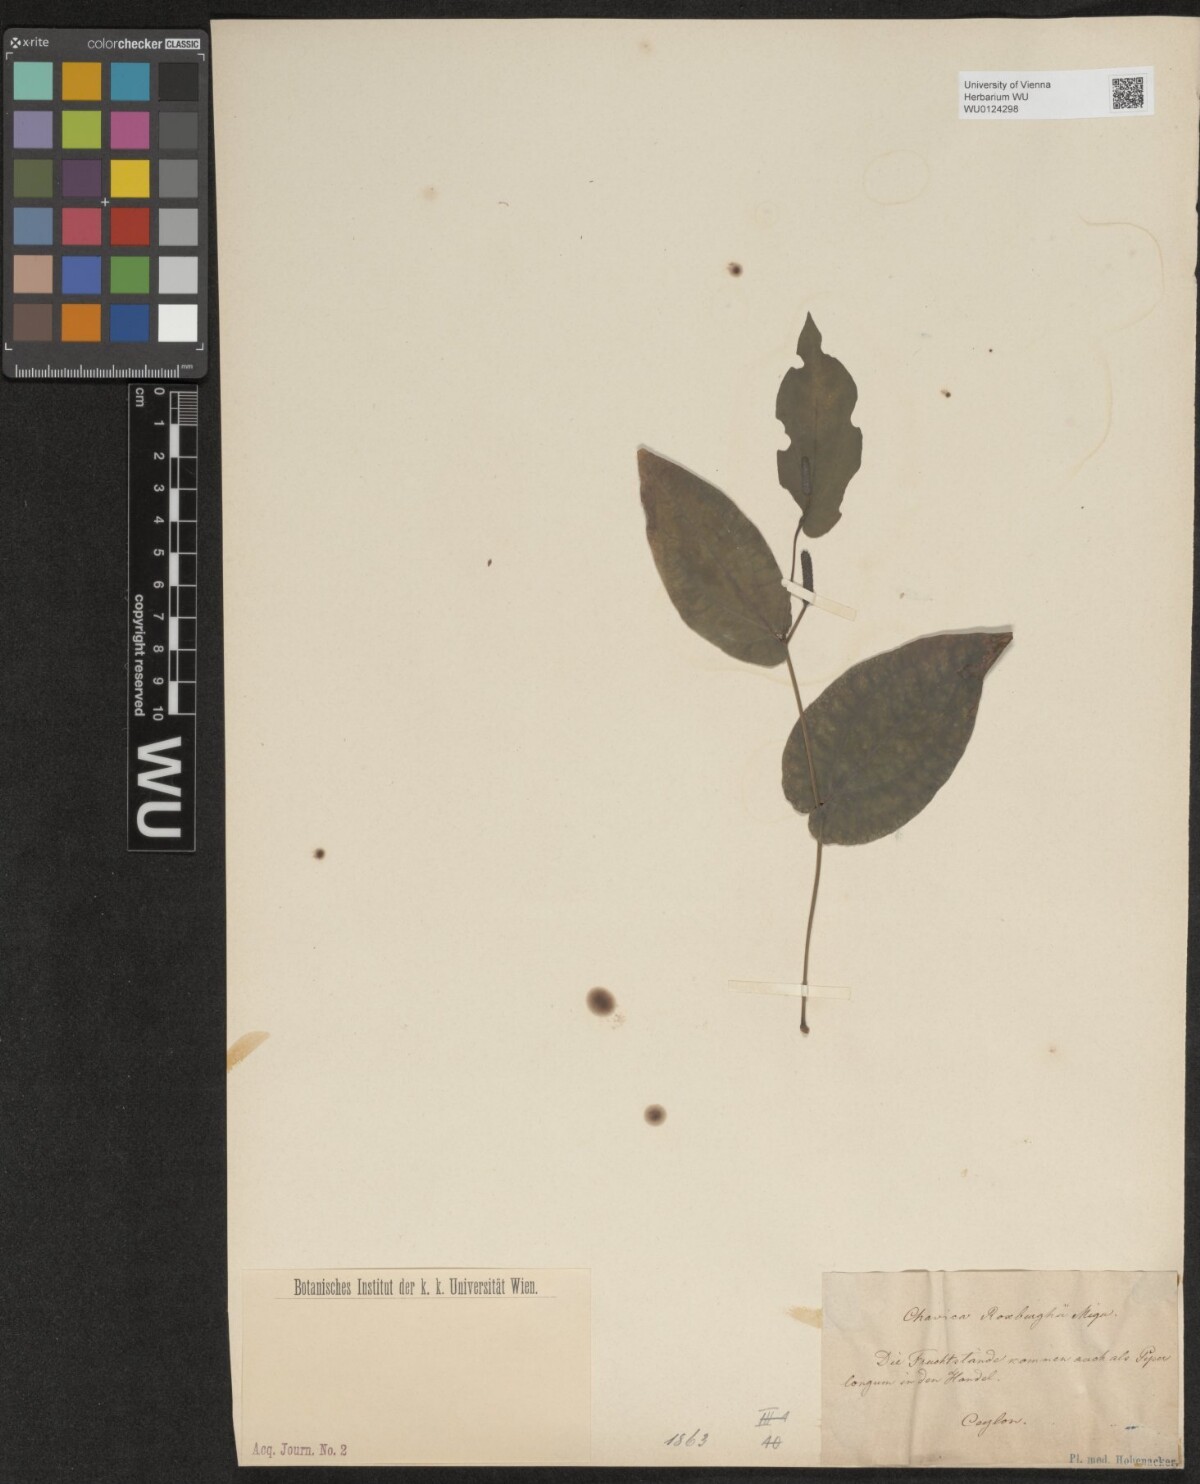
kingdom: Plantae
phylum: Tracheophyta
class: Magnoliopsida
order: Piperales
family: Piperaceae
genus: Piper
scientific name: Piper longum
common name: Long pepper
